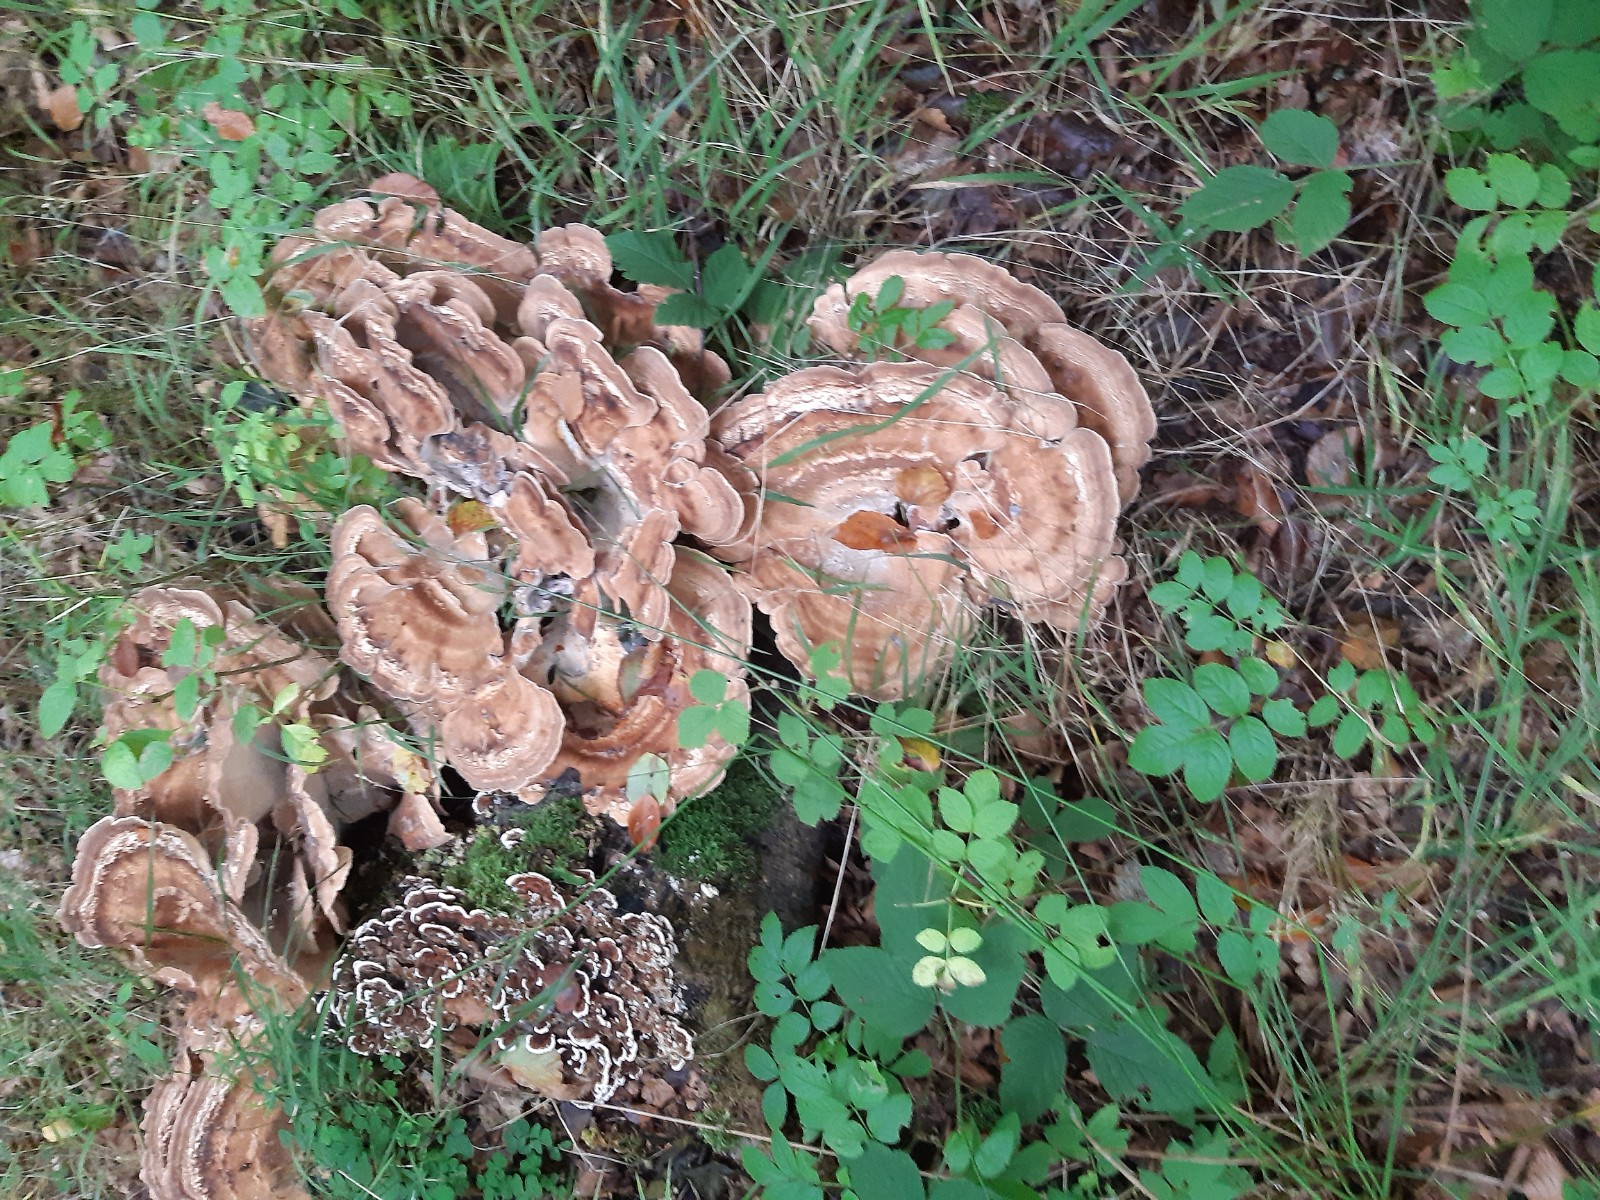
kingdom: Fungi
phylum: Basidiomycota
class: Agaricomycetes
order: Polyporales
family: Meripilaceae
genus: Meripilus
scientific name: Meripilus
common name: kæmpeporesvamp
